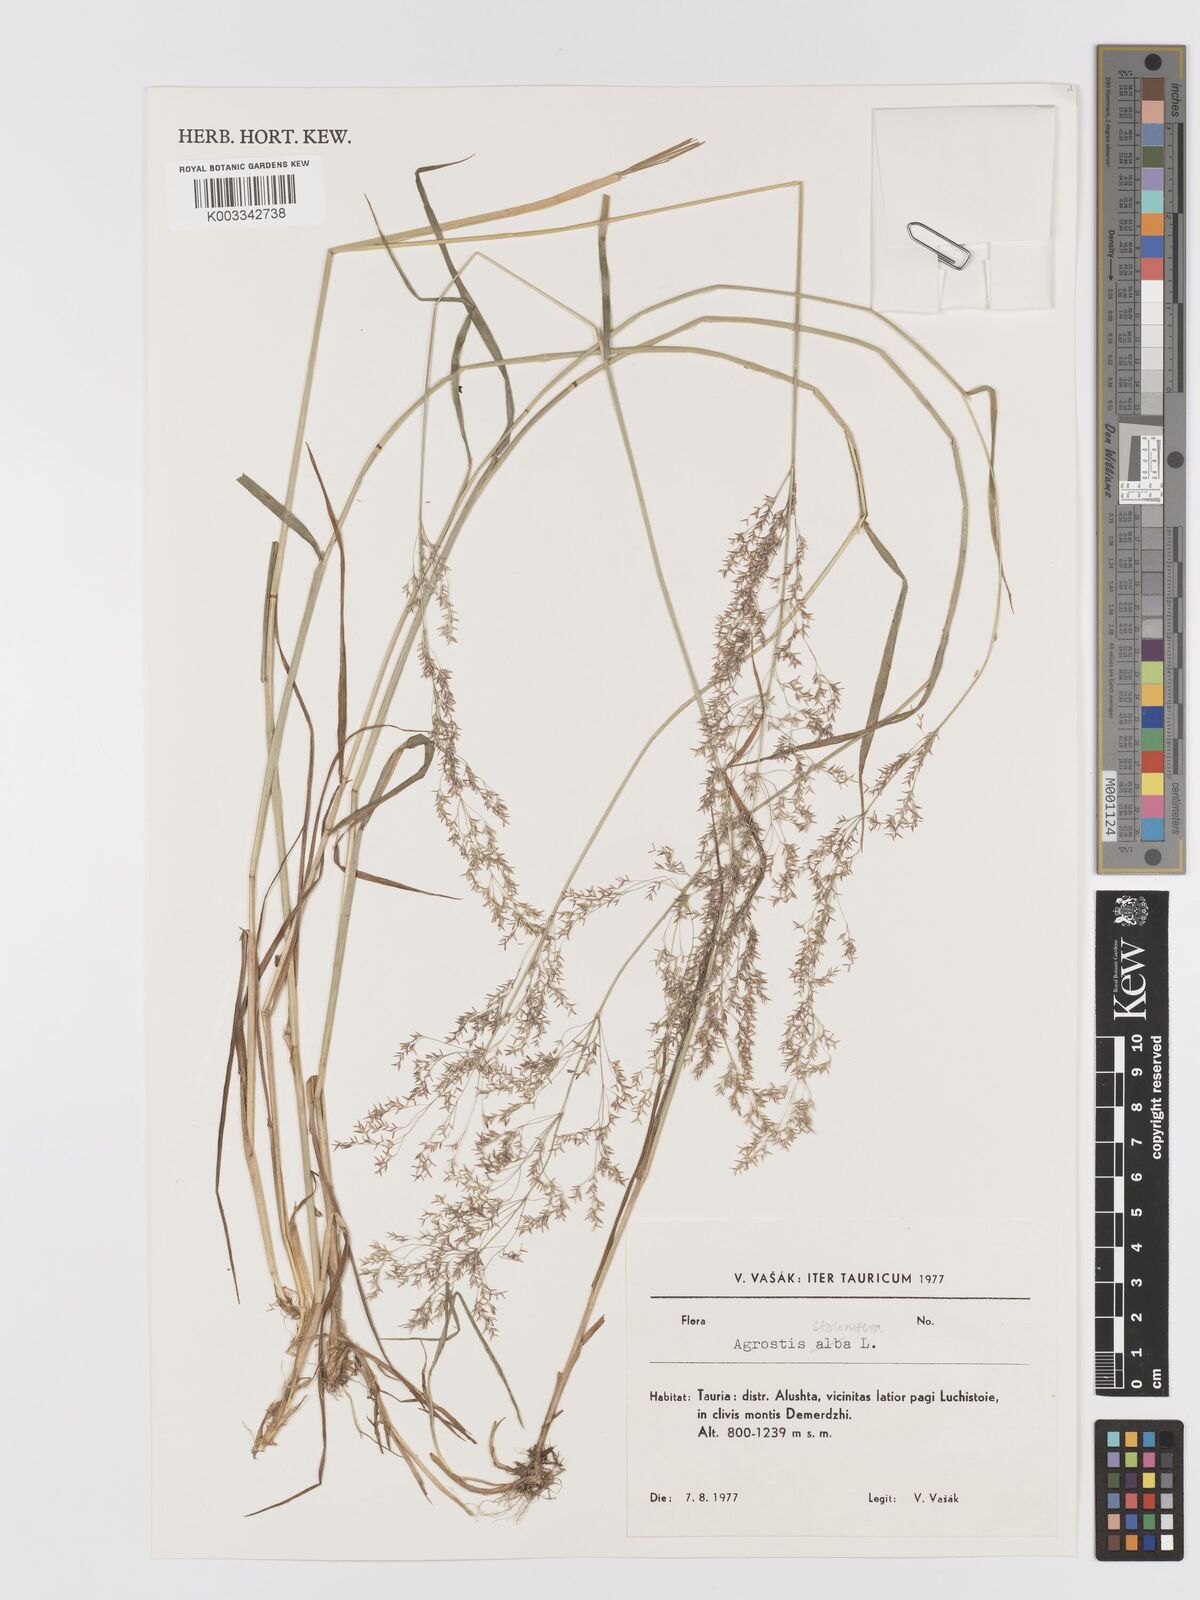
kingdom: Plantae
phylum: Tracheophyta
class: Liliopsida
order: Poales
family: Poaceae
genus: Agrostis
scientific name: Agrostis stolonifera
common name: Creeping bentgrass
